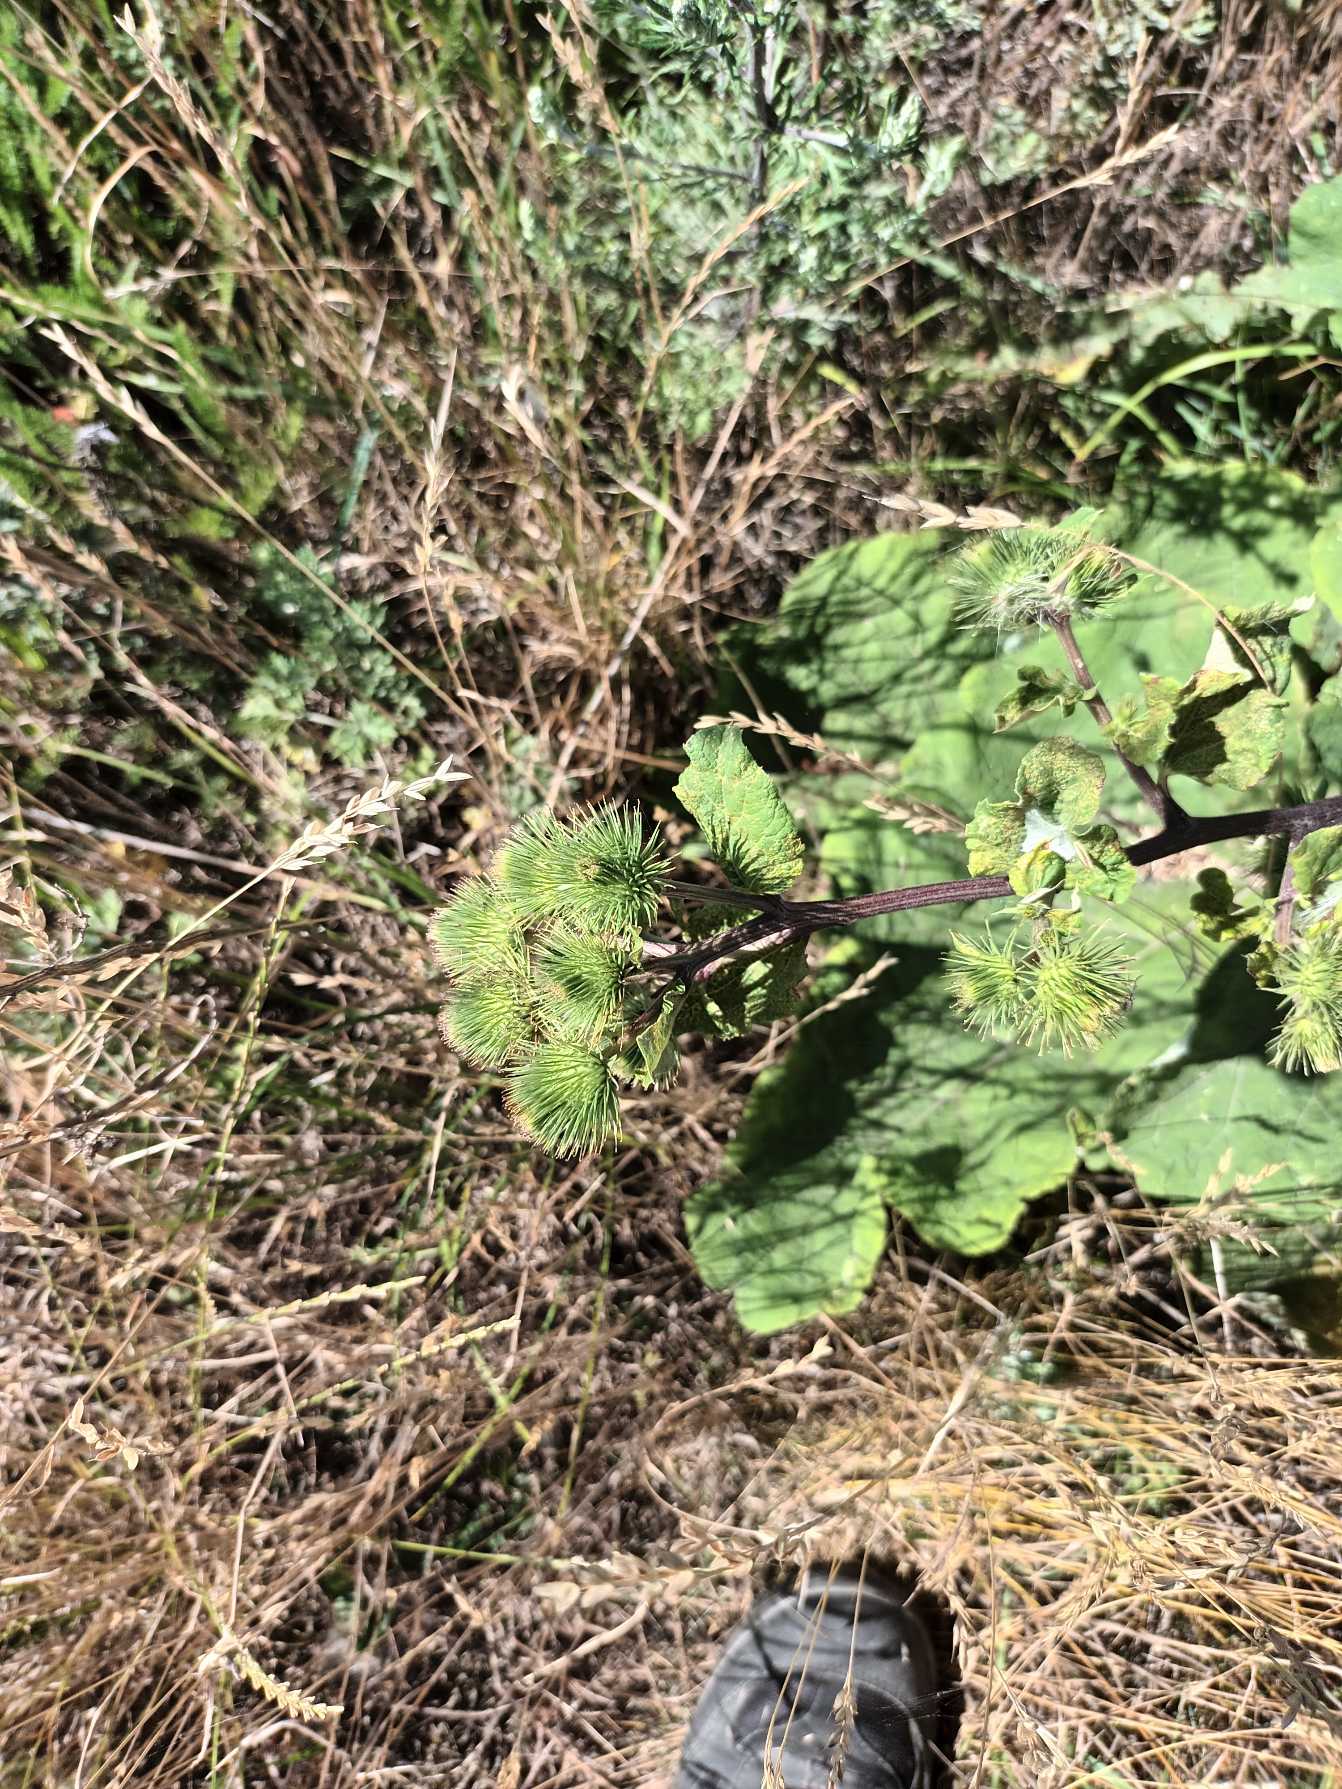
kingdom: Plantae
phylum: Tracheophyta
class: Magnoliopsida
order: Asterales
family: Asteraceae
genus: Arctium
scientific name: Arctium lappa
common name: Glat burre
